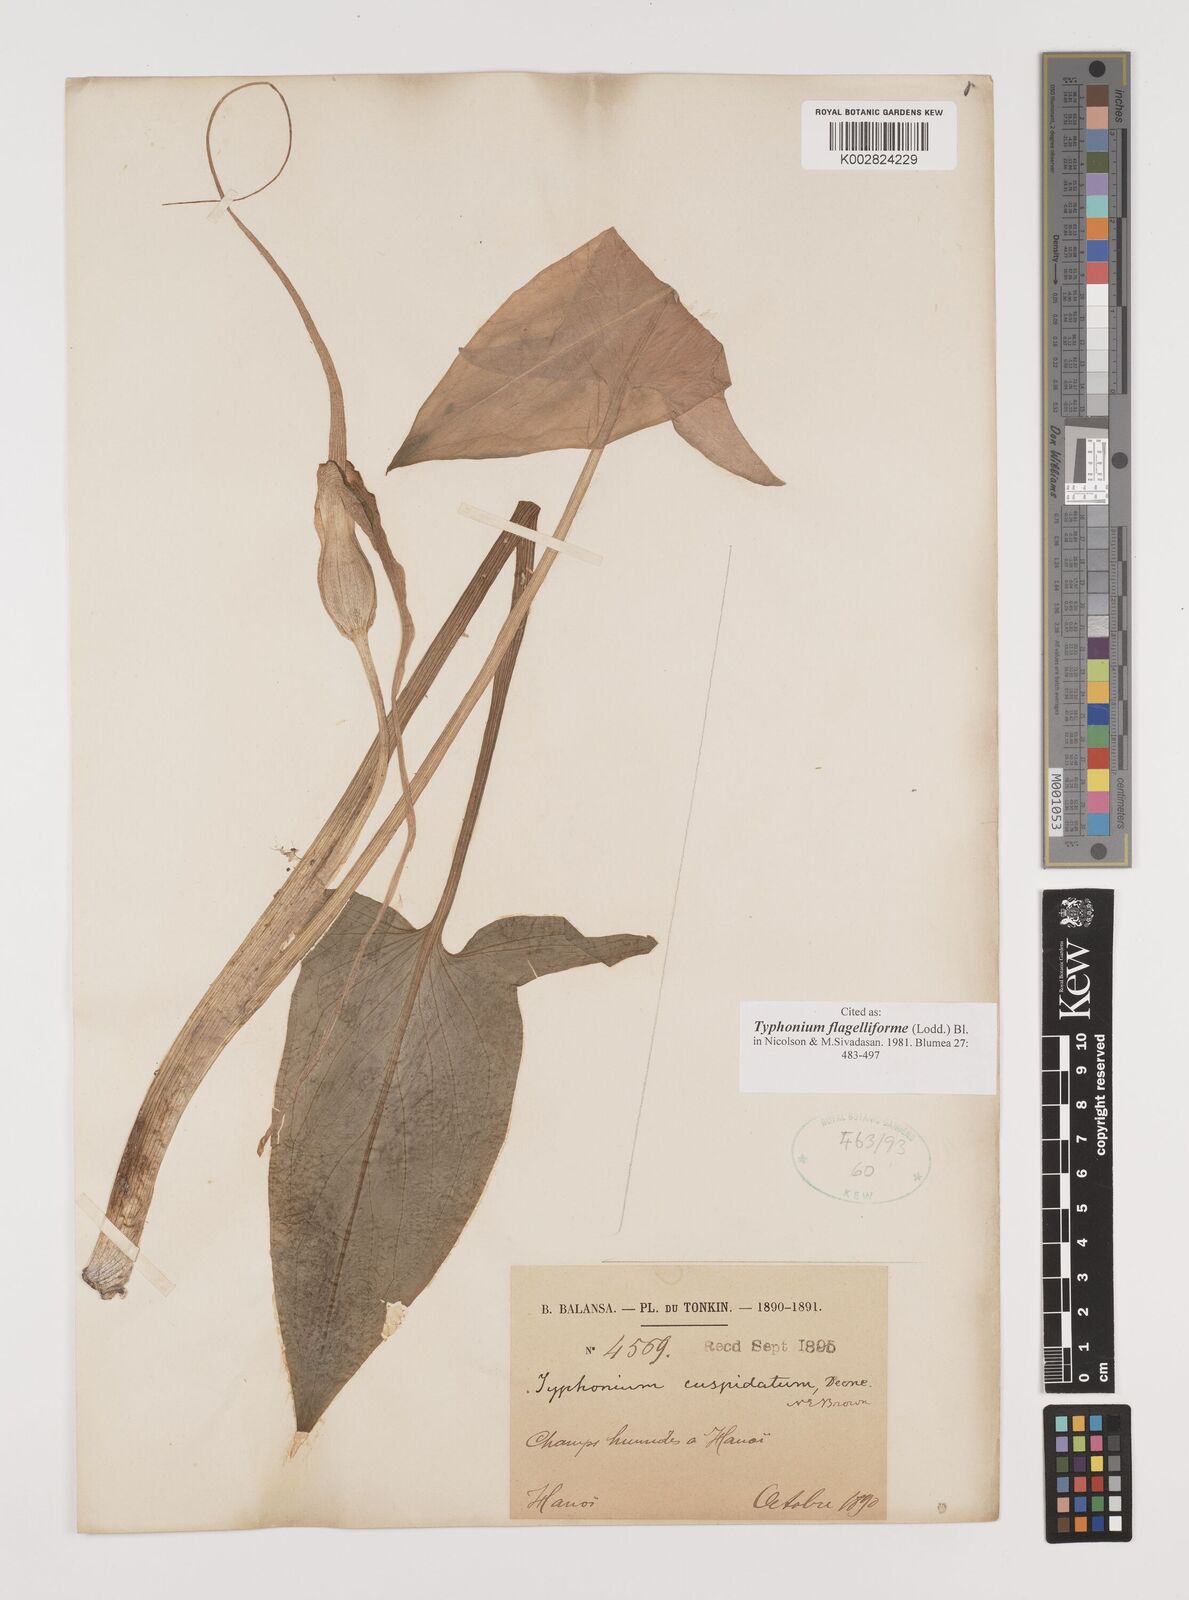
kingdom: Plantae
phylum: Tracheophyta
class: Liliopsida
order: Alismatales
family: Araceae
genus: Typhonium
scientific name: Typhonium flagelliforme
